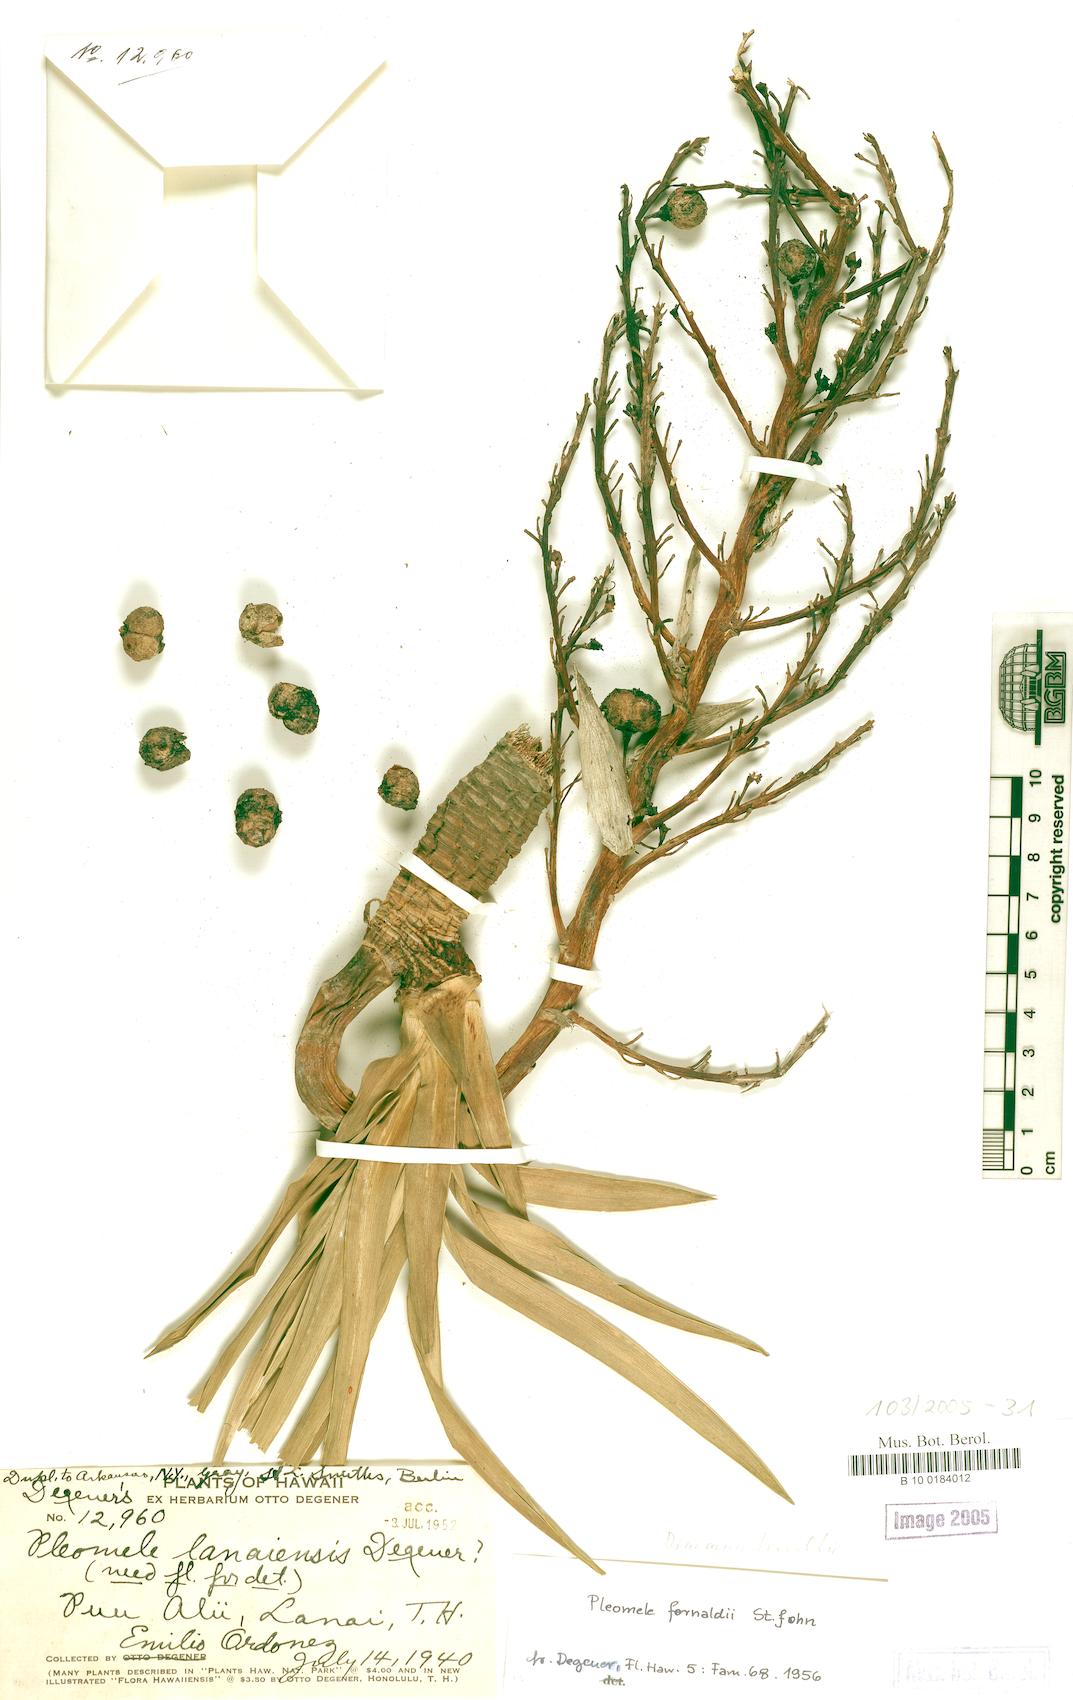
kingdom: Plantae
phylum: Tracheophyta
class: Liliopsida
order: Asparagales
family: Asparagaceae
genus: Dracaena
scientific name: Dracaena fernaldii
